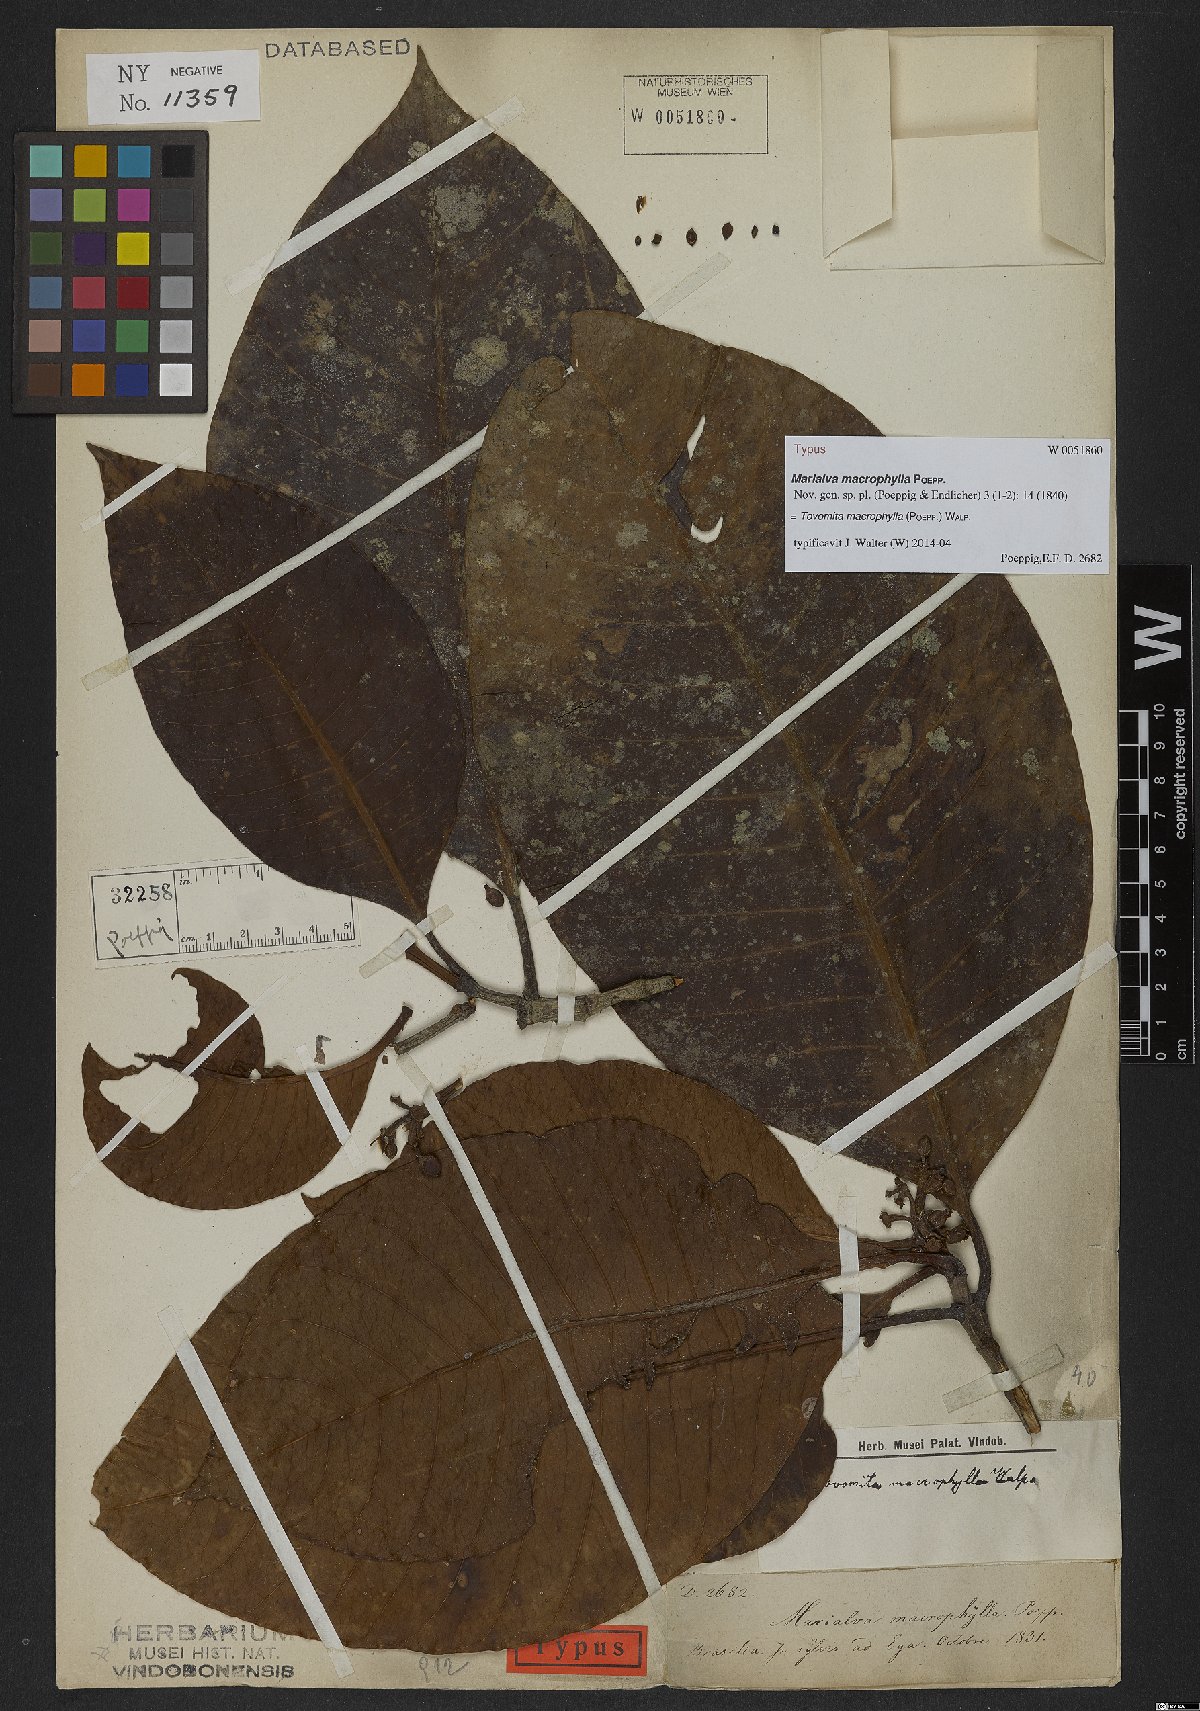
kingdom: Plantae
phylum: Tracheophyta
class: Magnoliopsida
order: Malpighiales
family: Clusiaceae
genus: Tovomita
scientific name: Tovomita macrophylla
